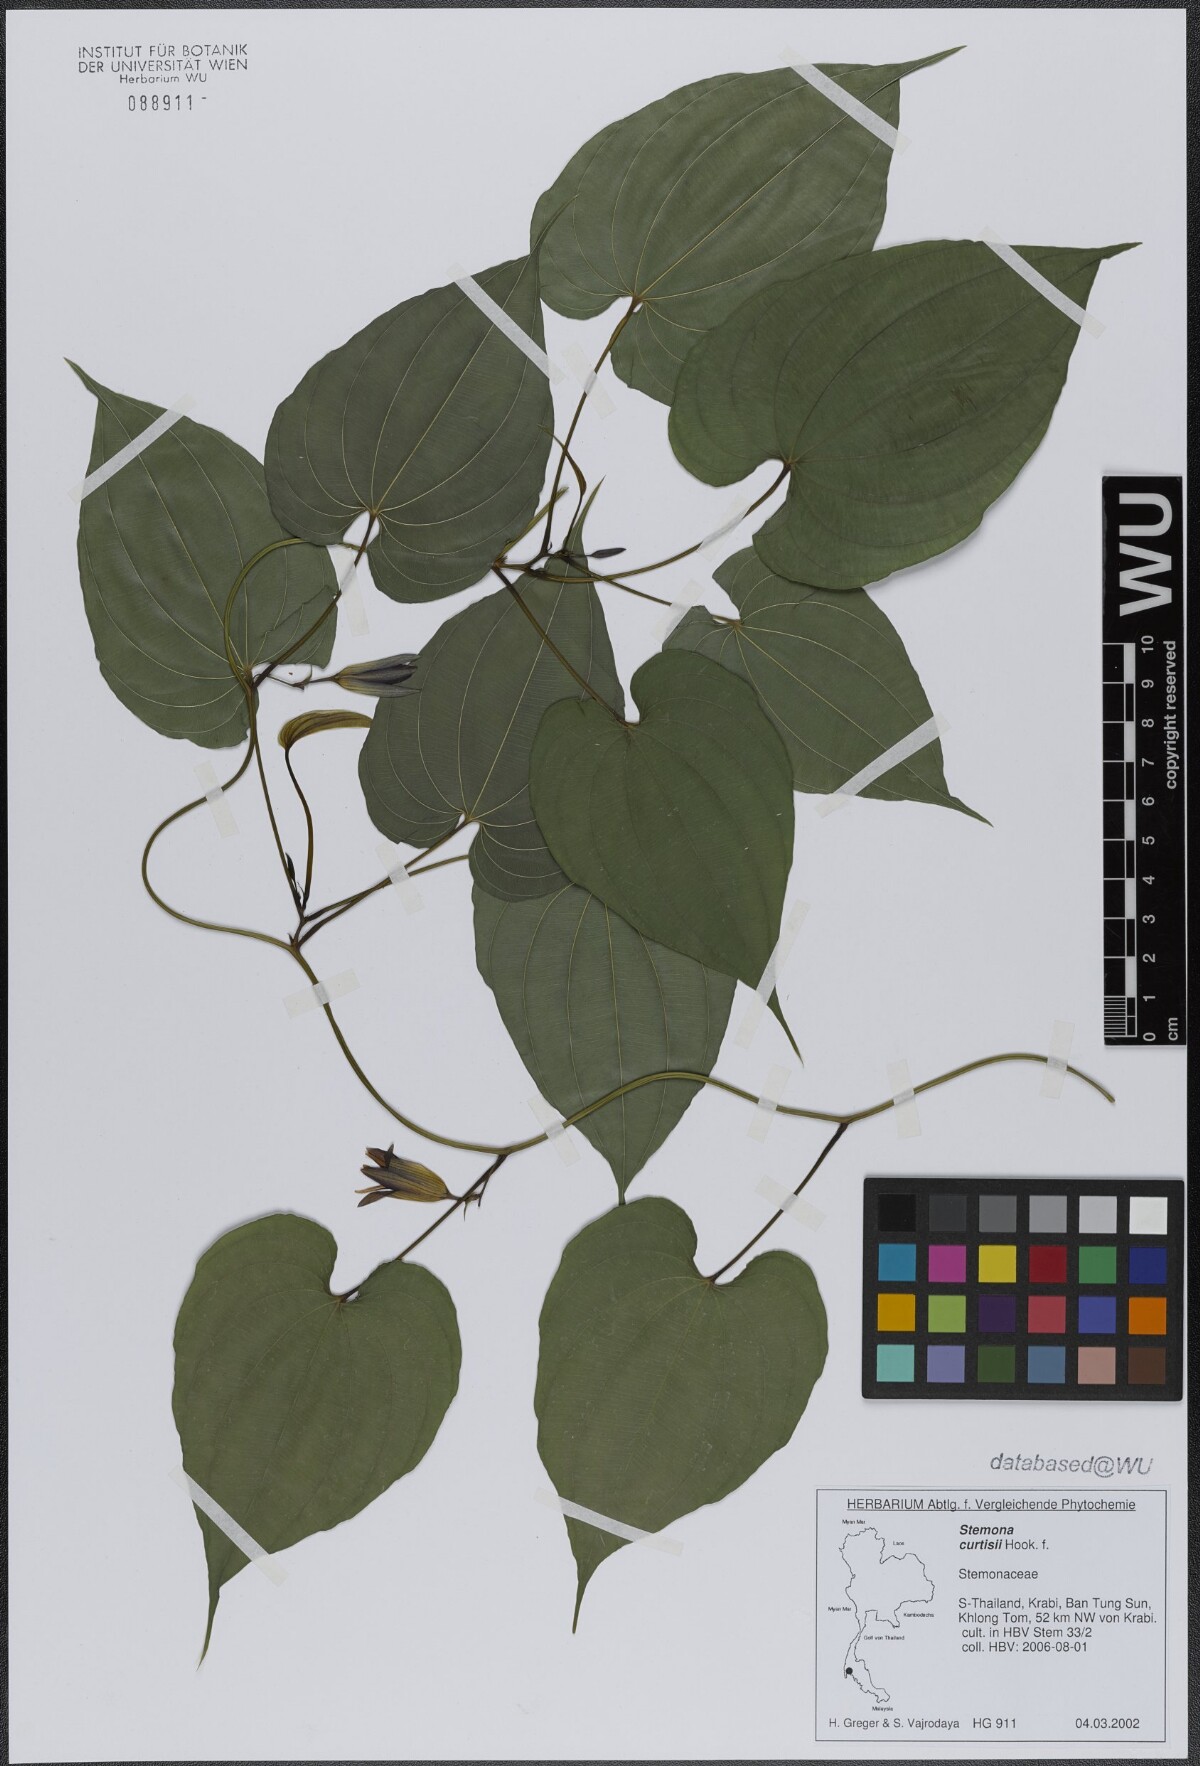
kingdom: Plantae
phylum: Tracheophyta
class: Liliopsida
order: Pandanales
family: Stemonaceae
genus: Stemona
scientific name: Stemona curtisii
